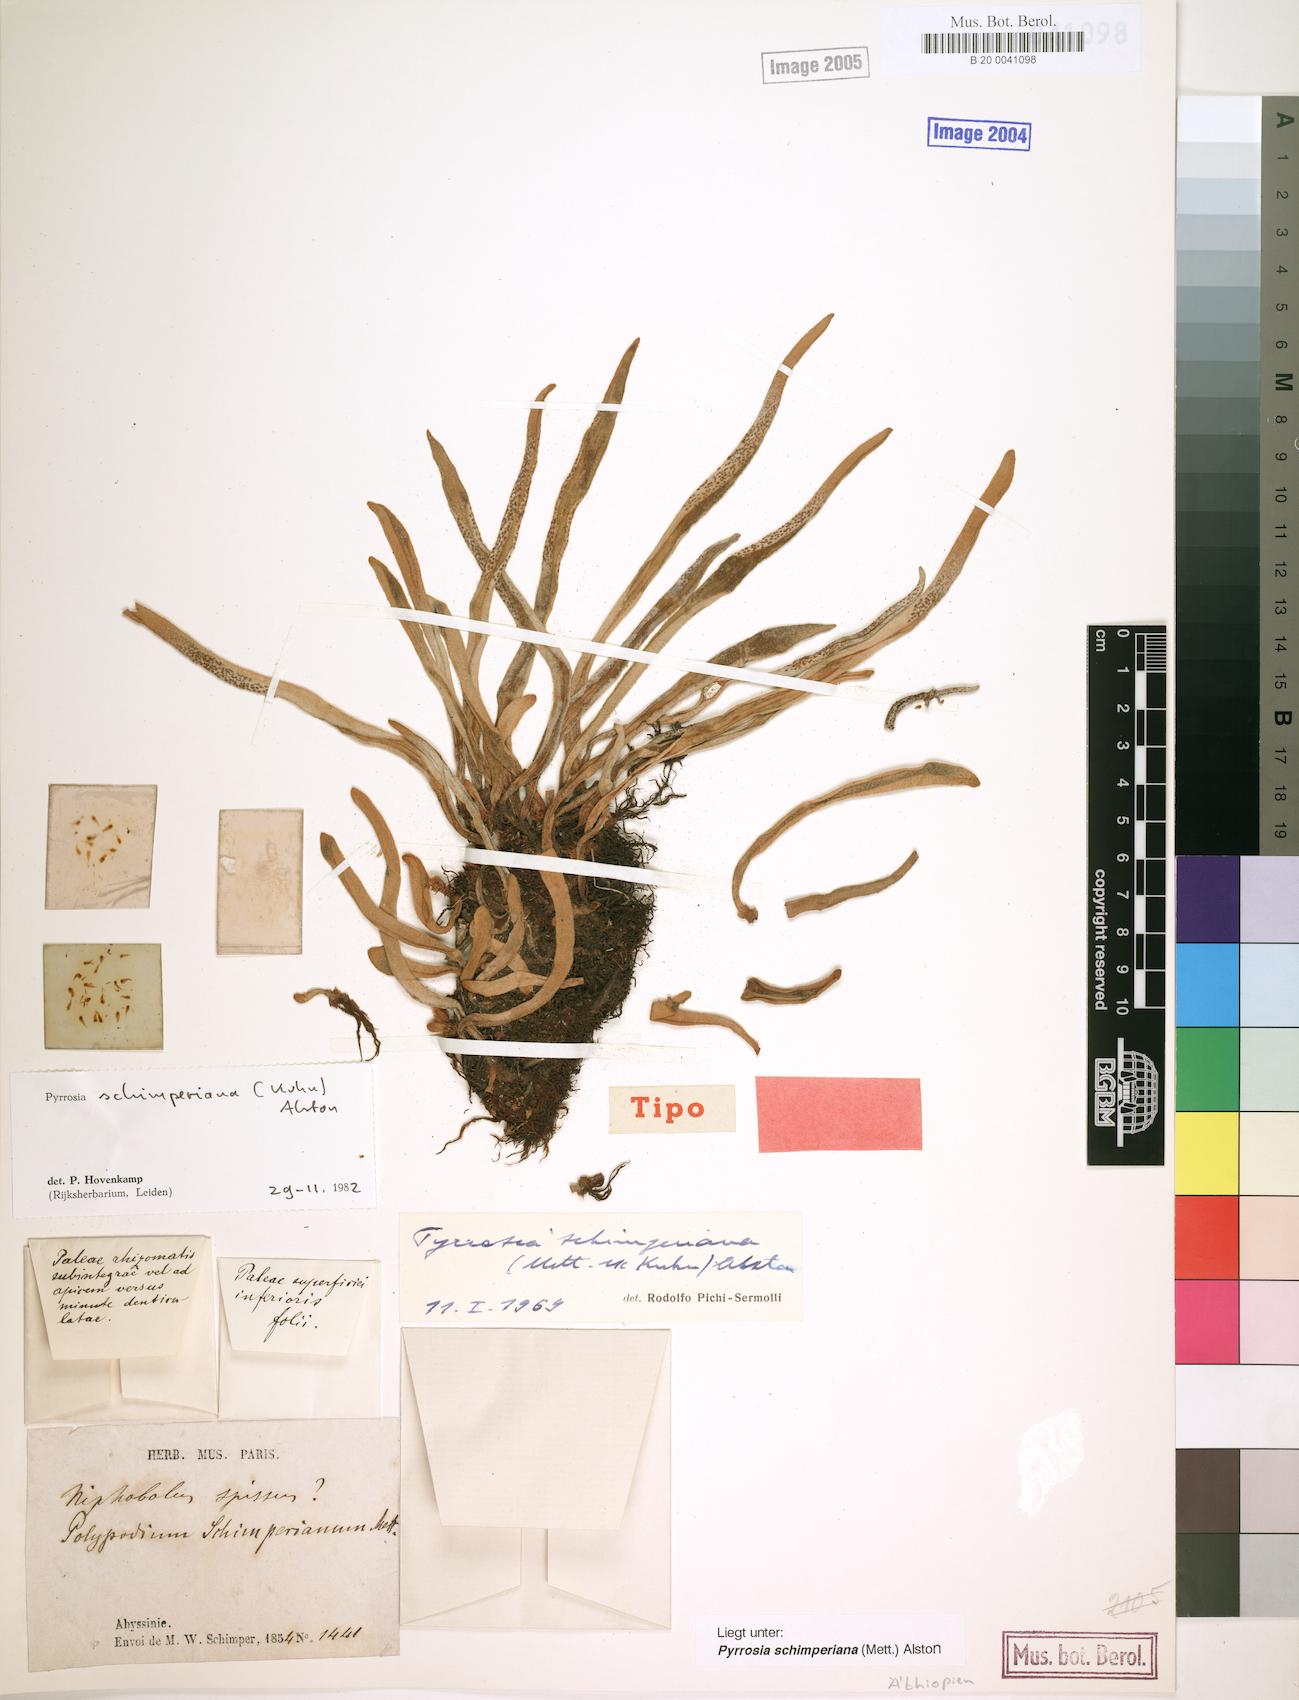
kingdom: Plantae
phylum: Tracheophyta
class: Polypodiopsida
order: Polypodiales
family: Polypodiaceae
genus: Hovenkampia
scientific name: Hovenkampia schimperiana
